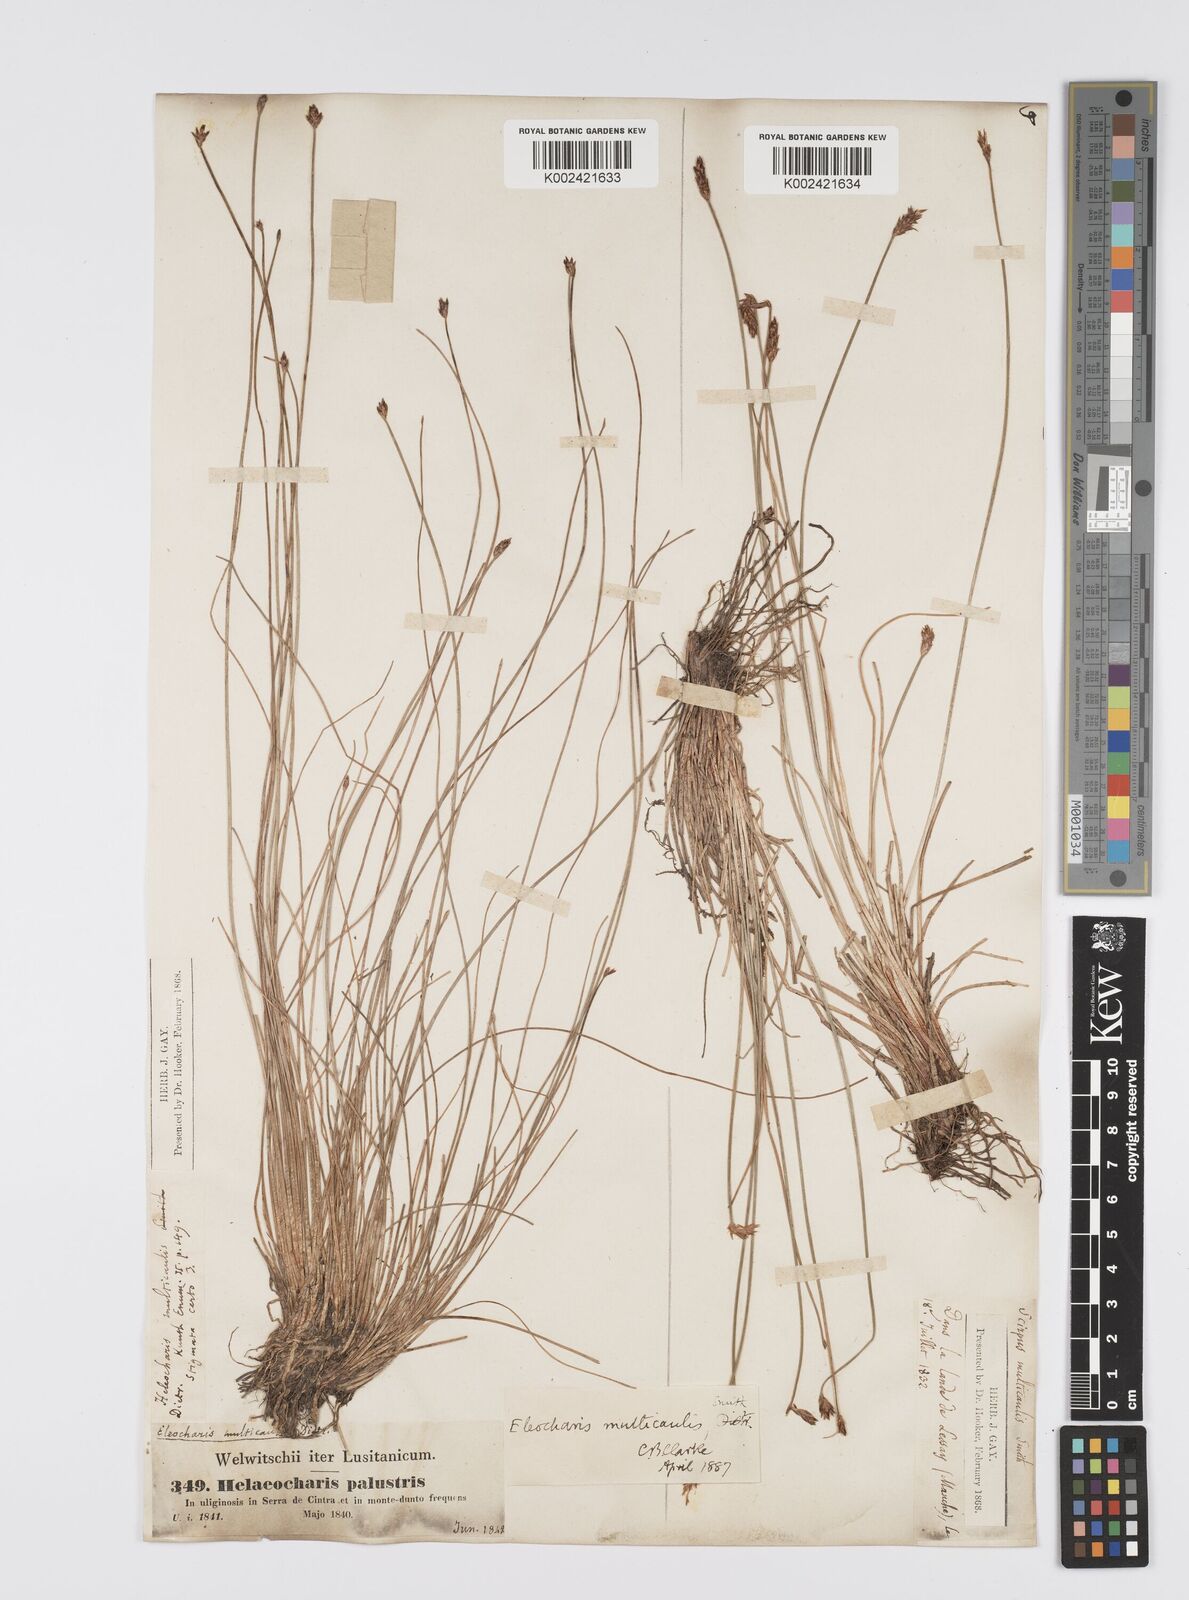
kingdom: Plantae
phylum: Tracheophyta
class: Liliopsida
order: Poales
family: Cyperaceae
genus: Eleocharis
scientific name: Eleocharis multicaulis
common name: Many-stalked spike-rush
